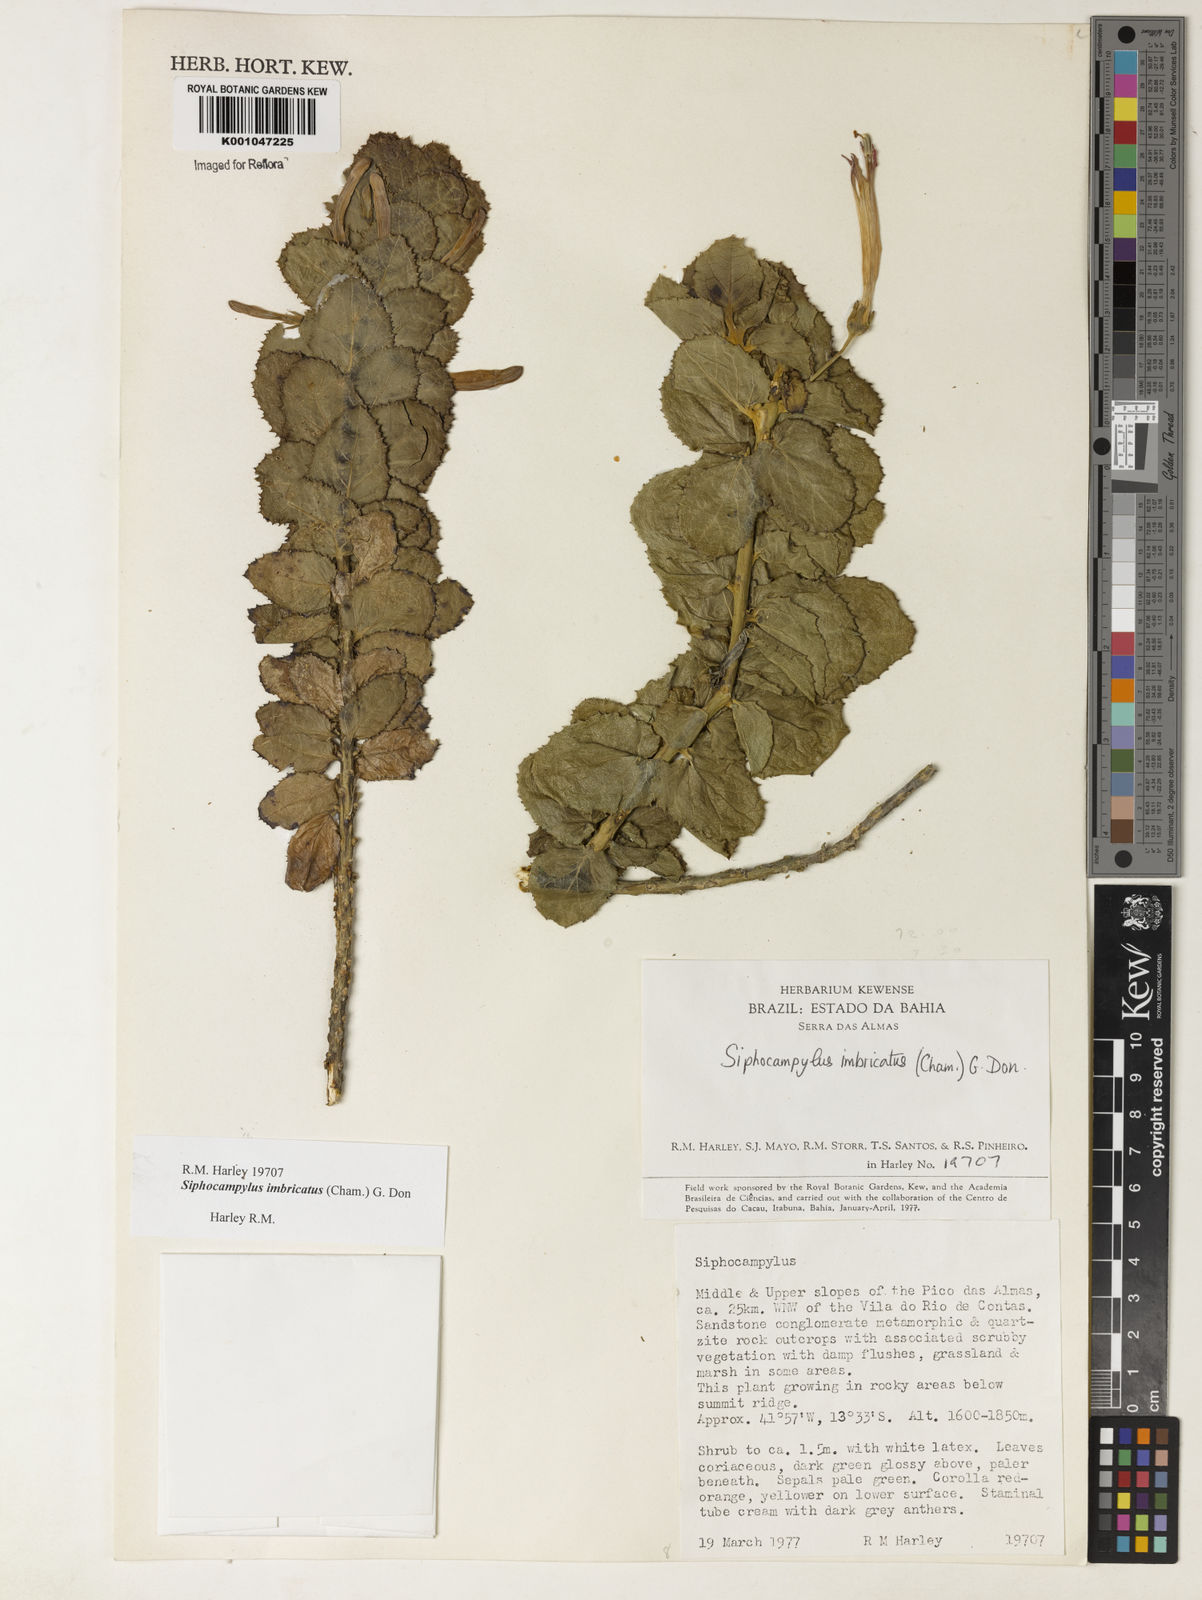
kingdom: Plantae
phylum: Tracheophyta
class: Magnoliopsida
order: Asterales
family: Campanulaceae
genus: Siphocampylus
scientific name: Siphocampylus imbricatus
